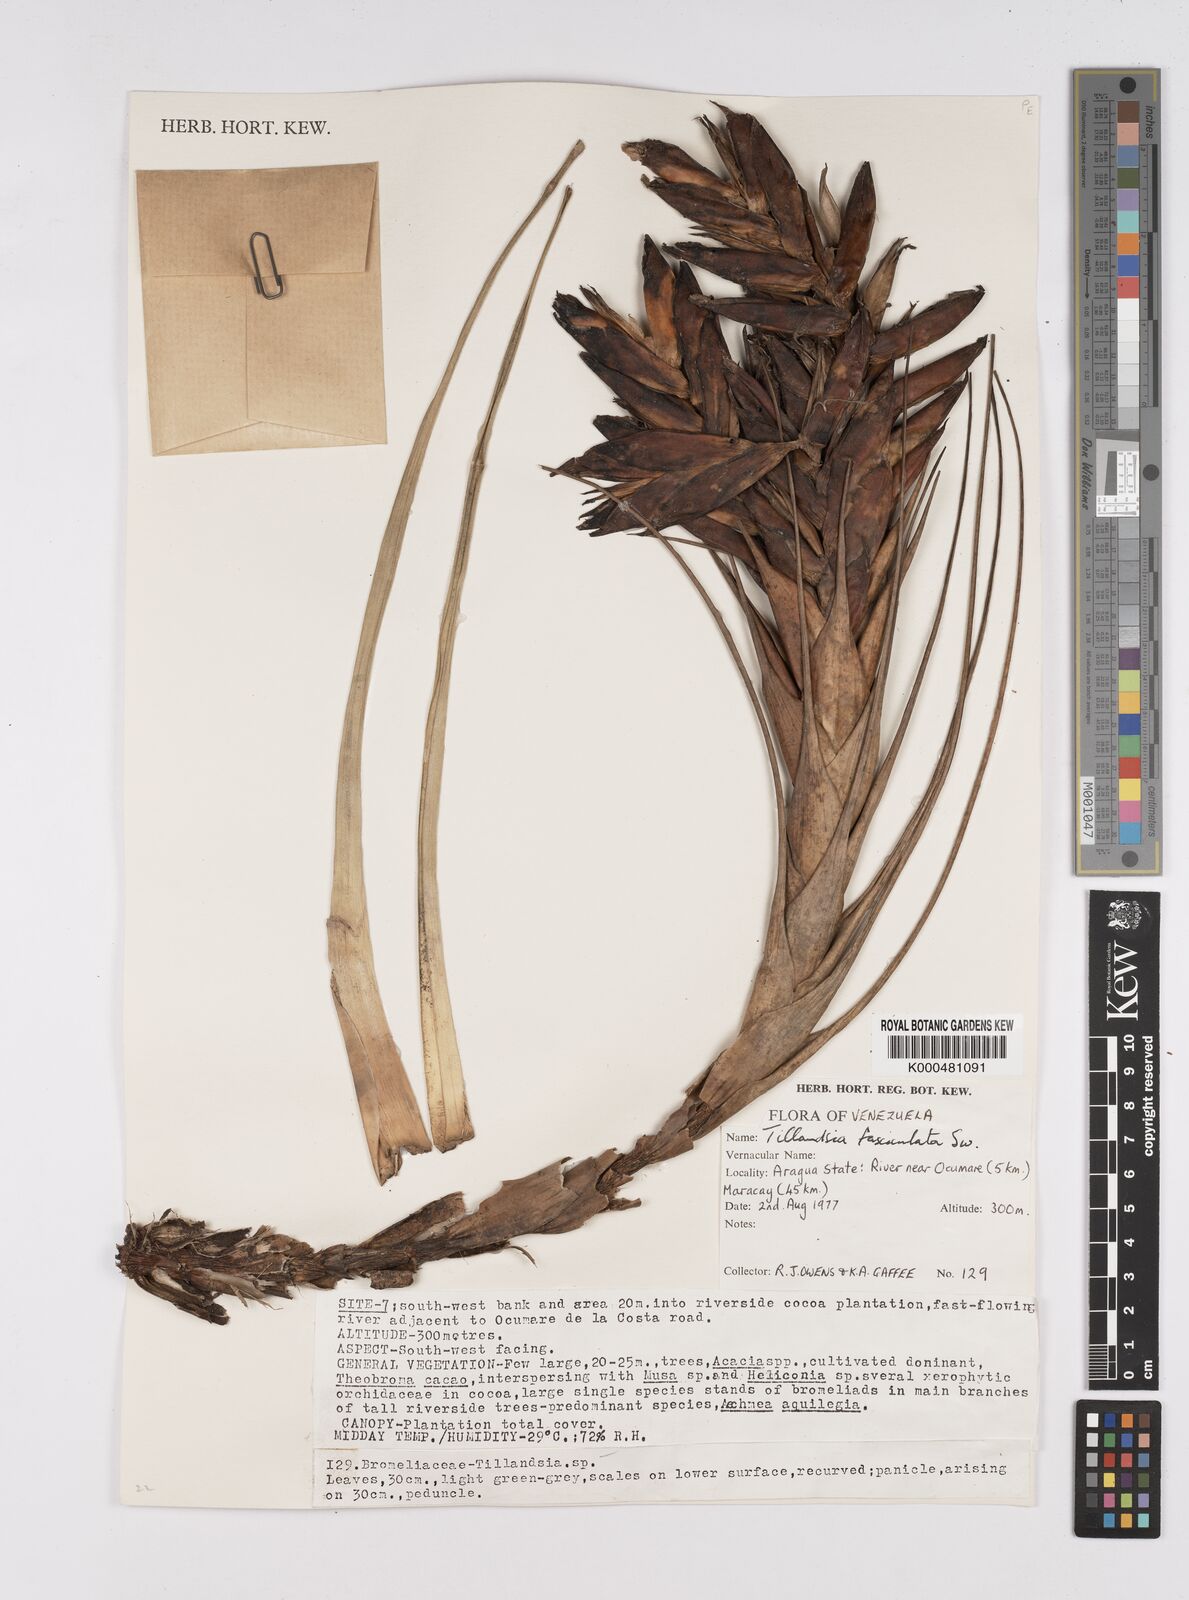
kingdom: Plantae
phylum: Tracheophyta
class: Liliopsida
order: Poales
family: Bromeliaceae
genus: Tillandsia
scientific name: Tillandsia fasciculata
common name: Giant airplant
